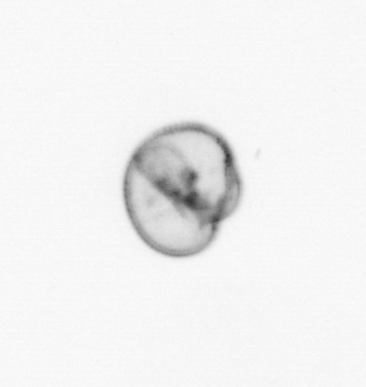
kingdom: Chromista
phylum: Myzozoa
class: Dinophyceae
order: Noctilucales
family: Noctilucaceae
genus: Noctiluca
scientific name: Noctiluca scintillans
